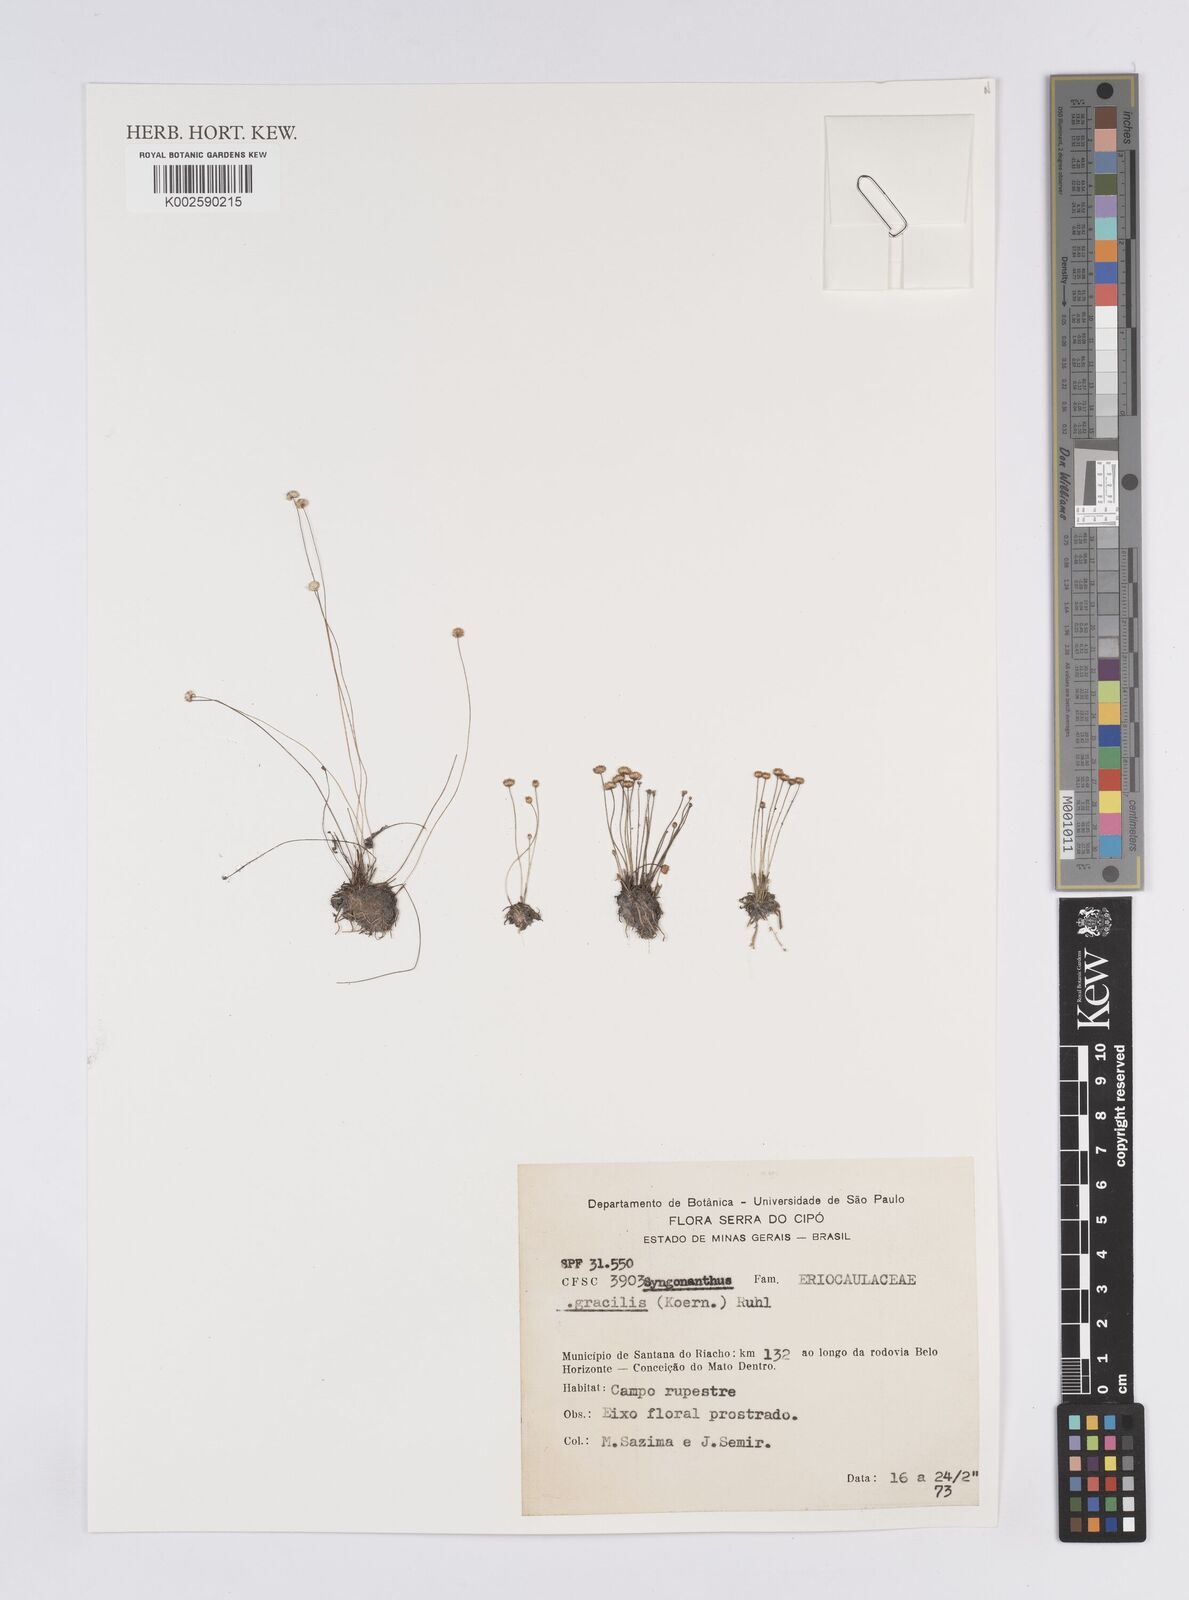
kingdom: Plantae
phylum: Tracheophyta
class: Liliopsida
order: Poales
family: Eriocaulaceae
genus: Syngonanthus
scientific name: Syngonanthus gracilis
